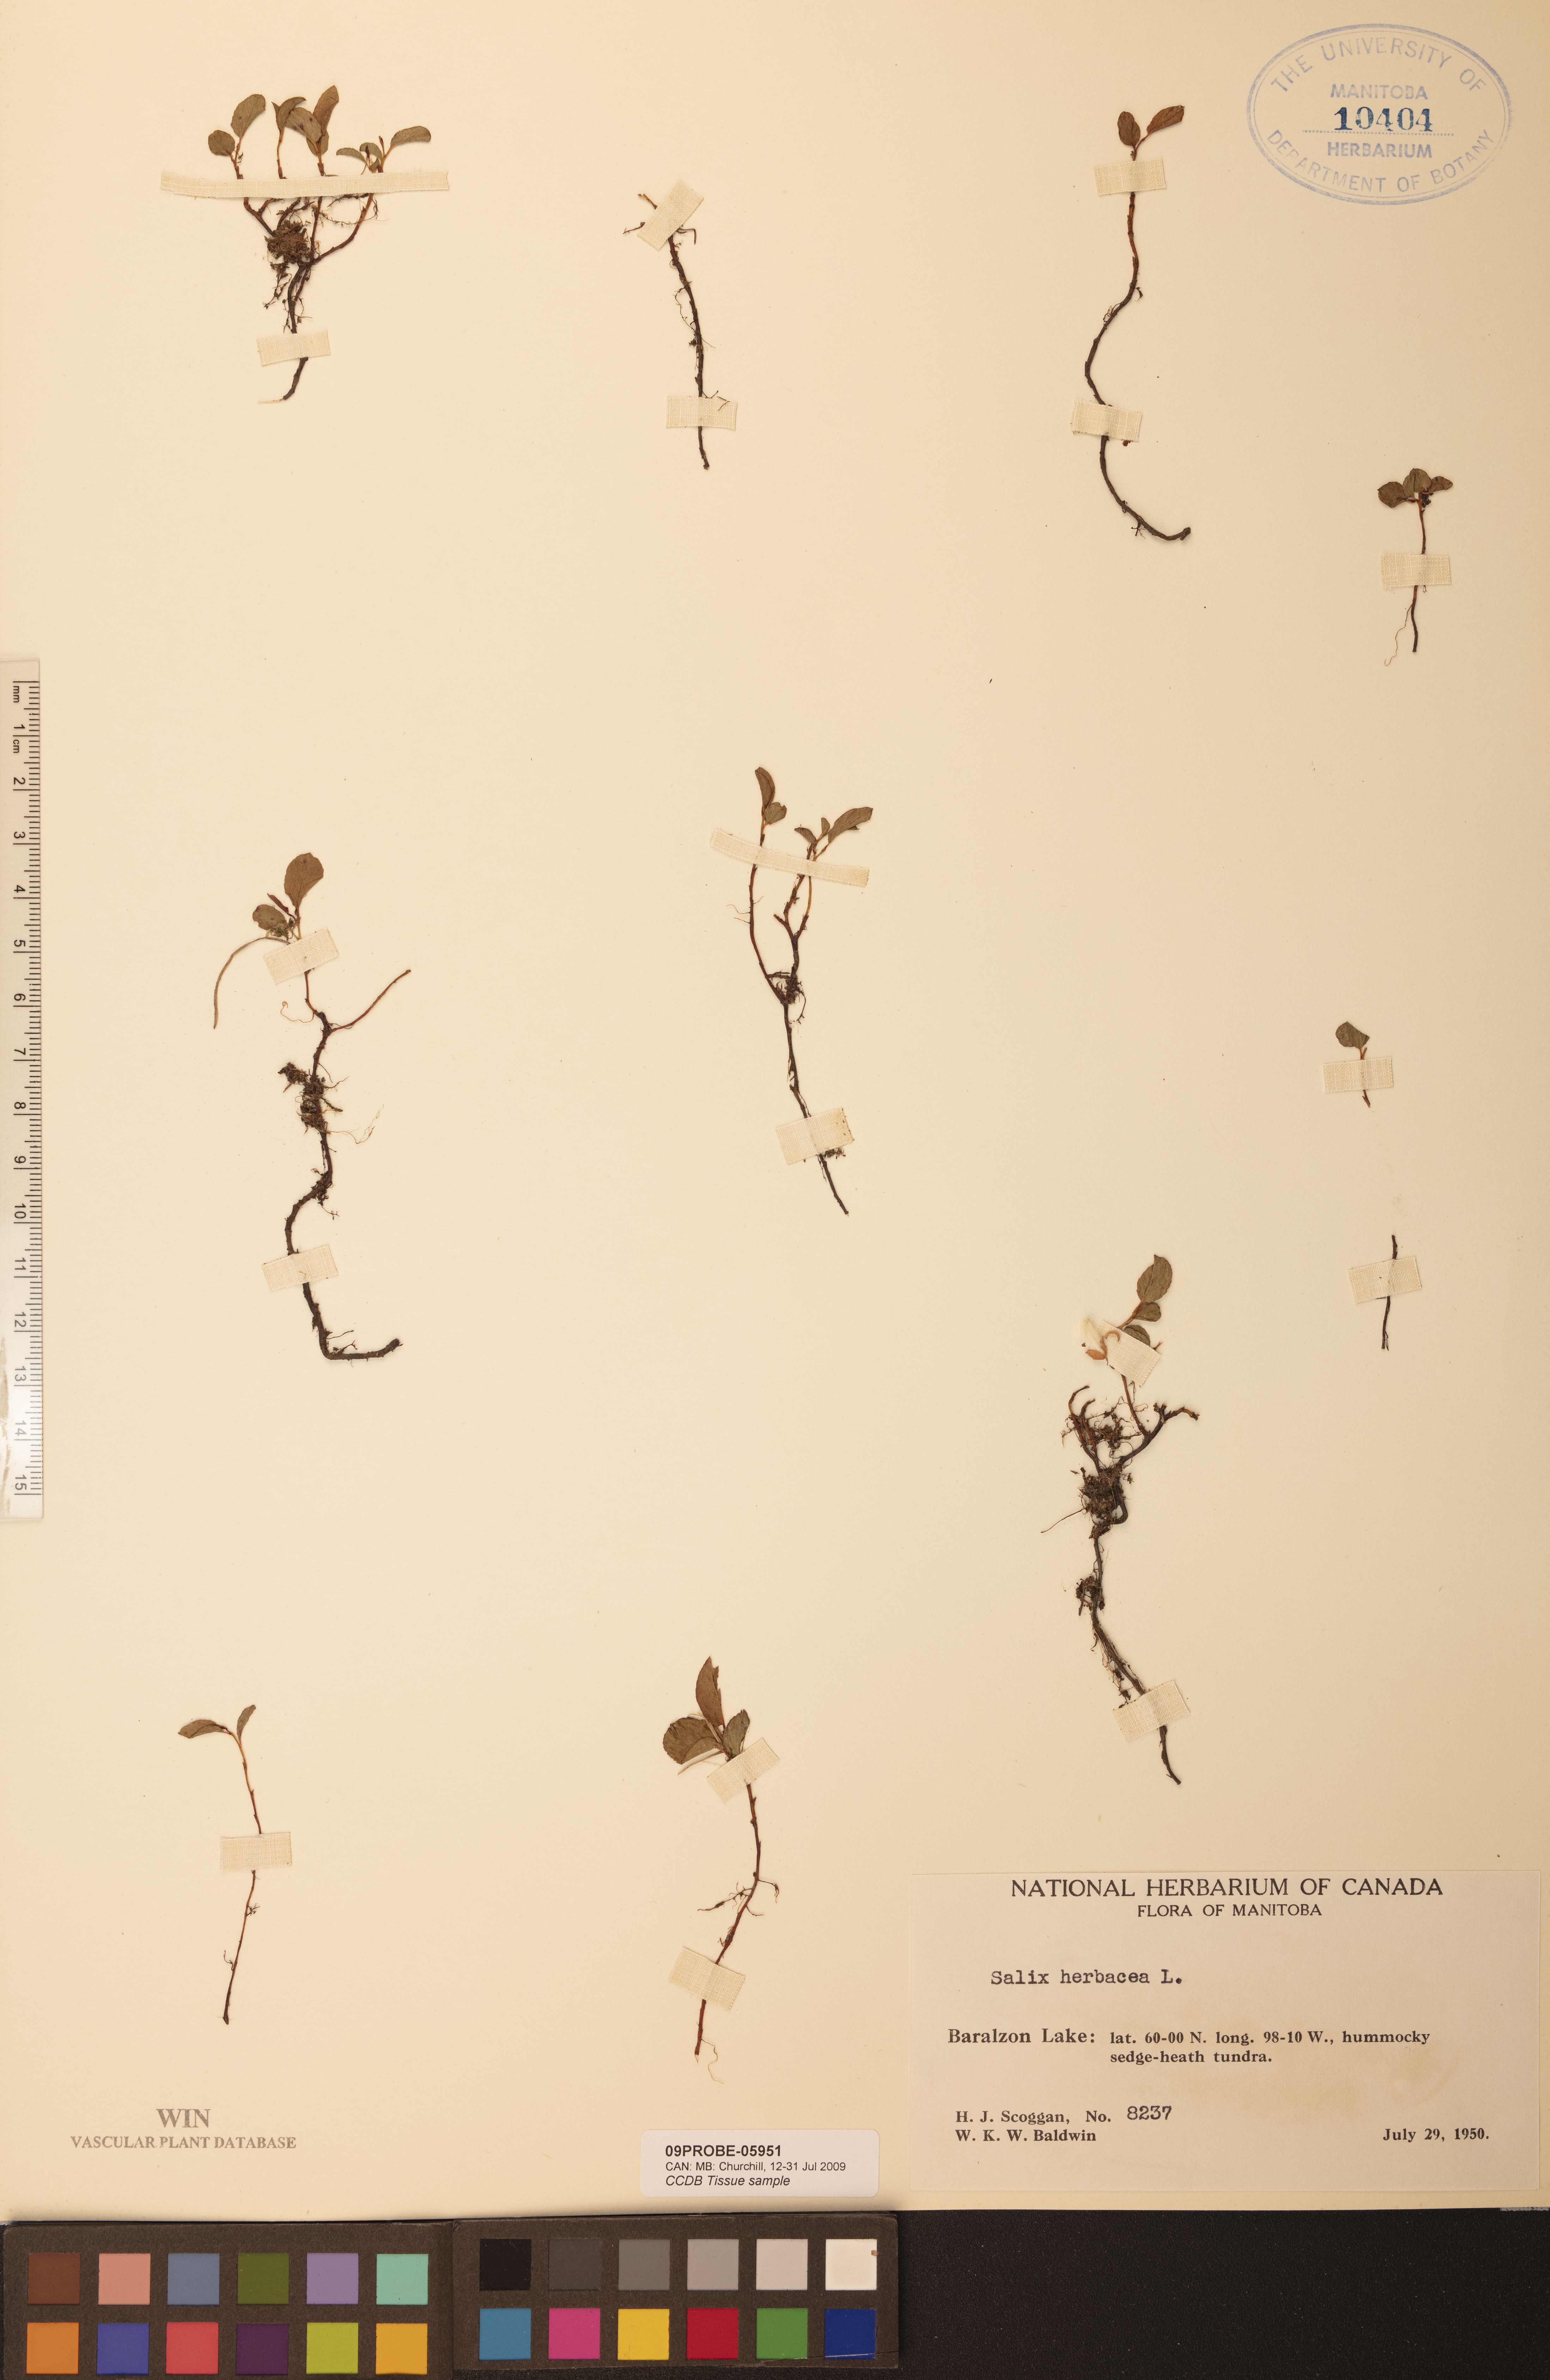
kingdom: Plantae
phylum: Tracheophyta
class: Magnoliopsida
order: Malpighiales
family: Salicaceae
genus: Salix
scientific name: Salix herbacea
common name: Dwarf willow
